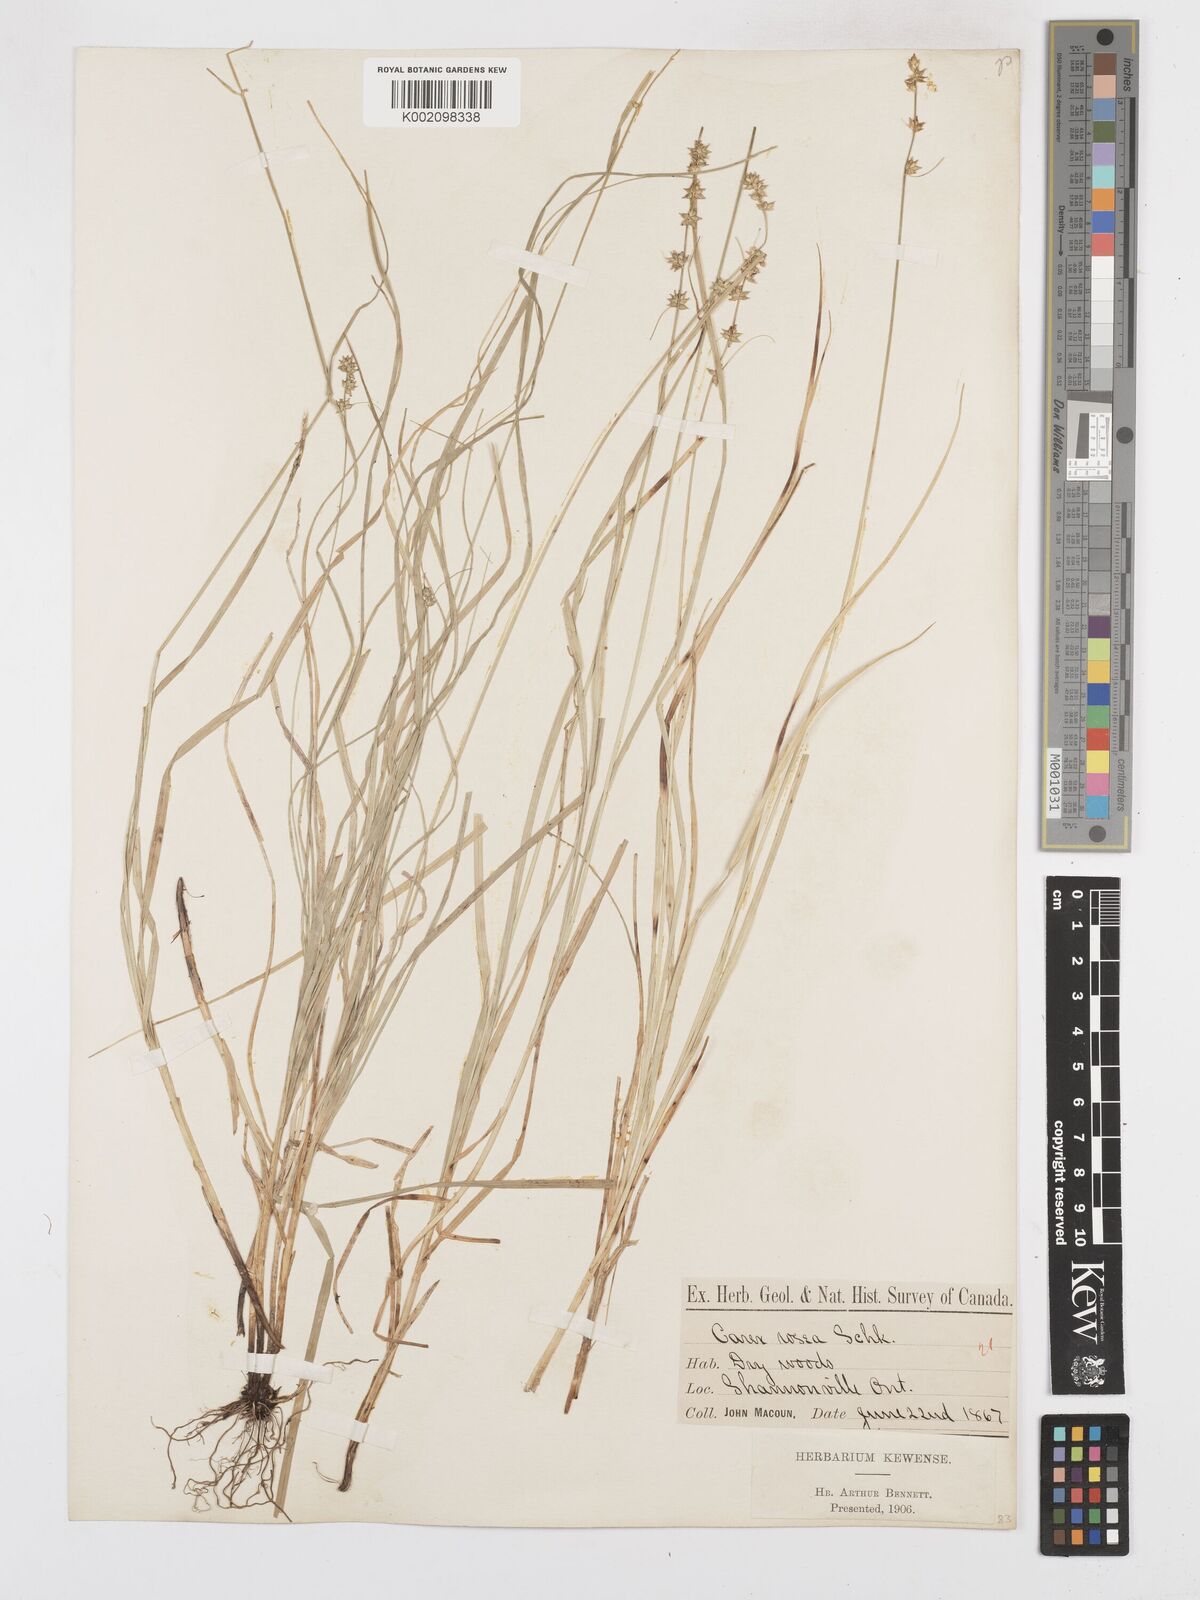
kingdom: Plantae
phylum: Tracheophyta
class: Liliopsida
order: Poales
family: Cyperaceae
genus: Carex
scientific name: Carex rosea
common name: Curly-styled wood sedge
